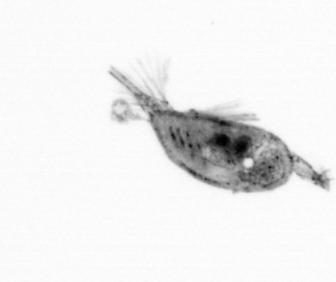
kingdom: Animalia
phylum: Arthropoda
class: Maxillopoda
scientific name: Maxillopoda
